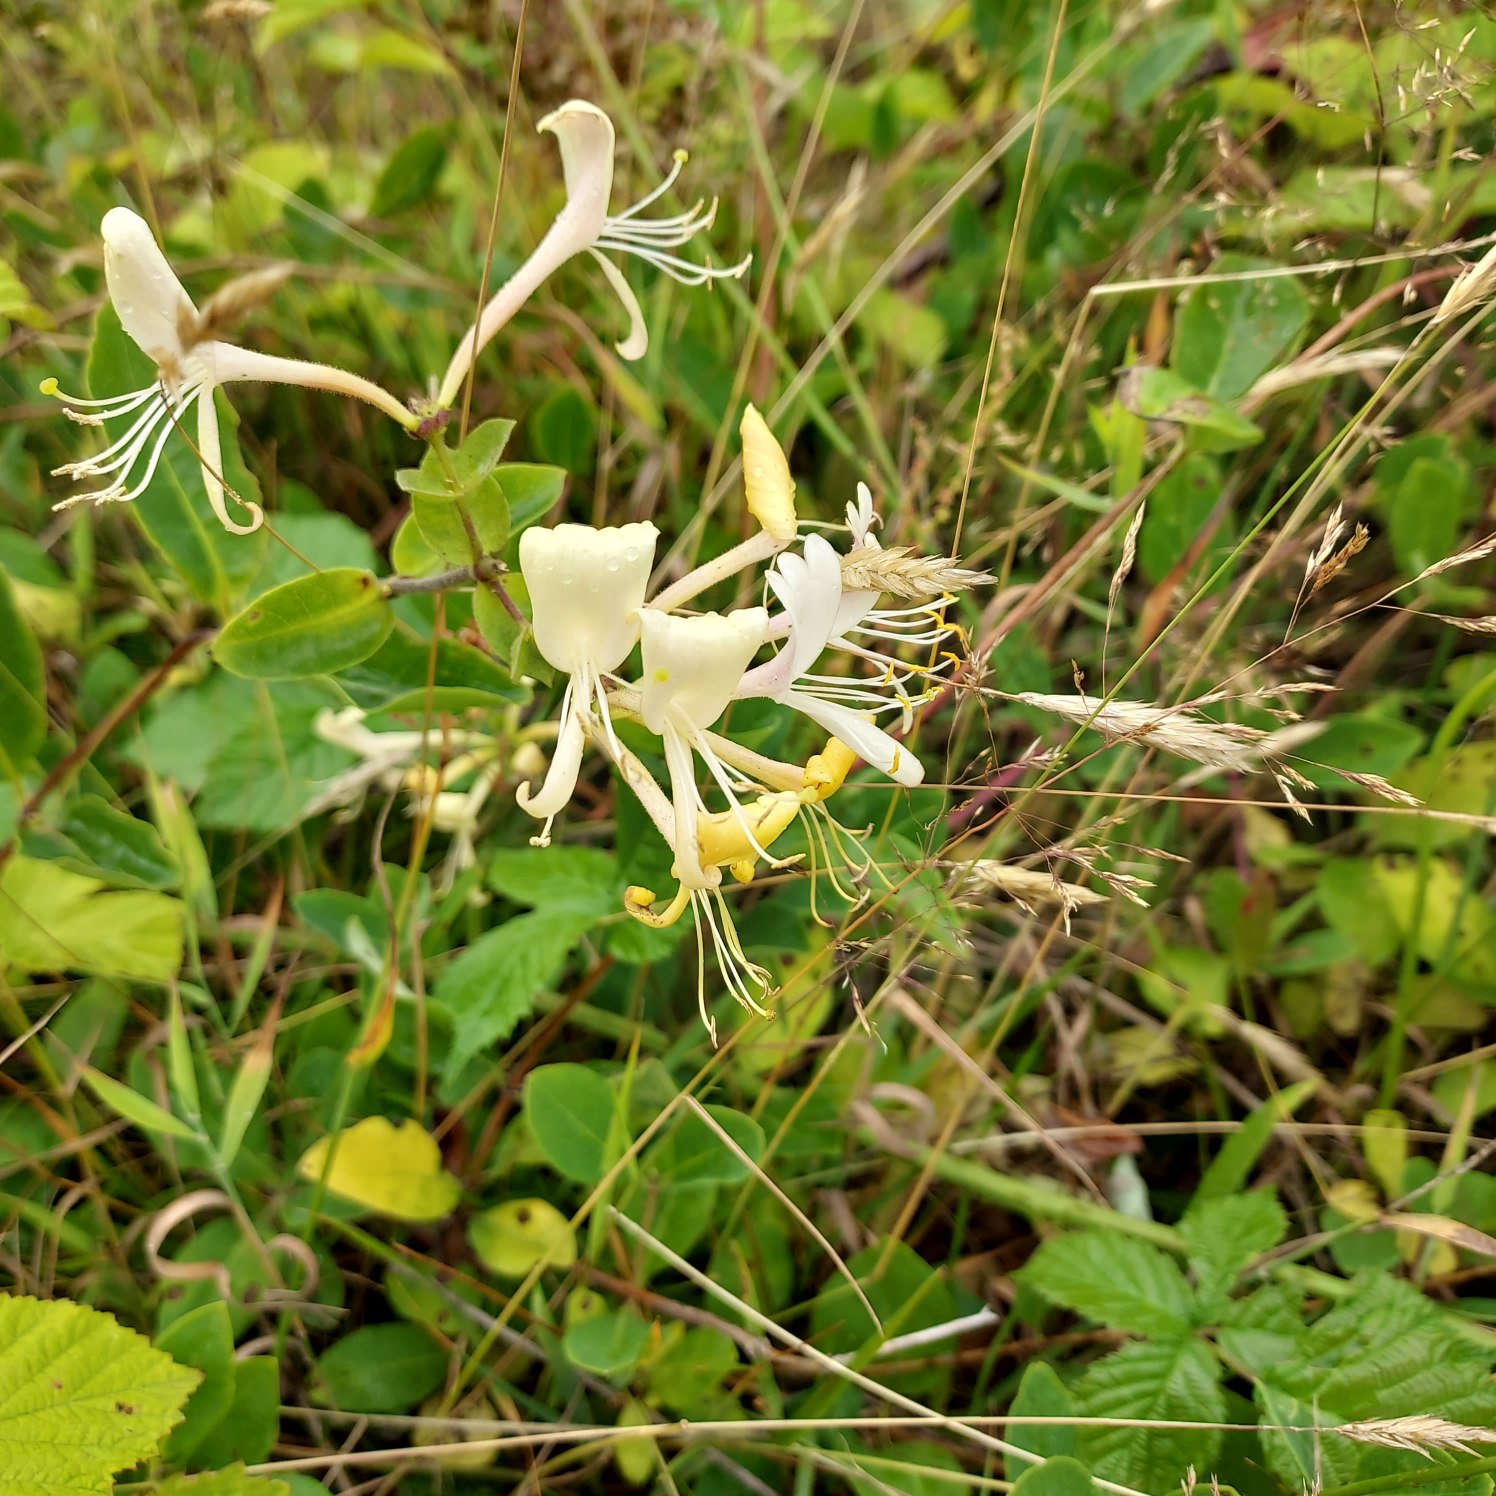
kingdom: Plantae
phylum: Tracheophyta
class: Magnoliopsida
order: Dipsacales
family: Caprifoliaceae
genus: Lonicera
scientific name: Lonicera periclymenum
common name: Almindelig gedeblad
